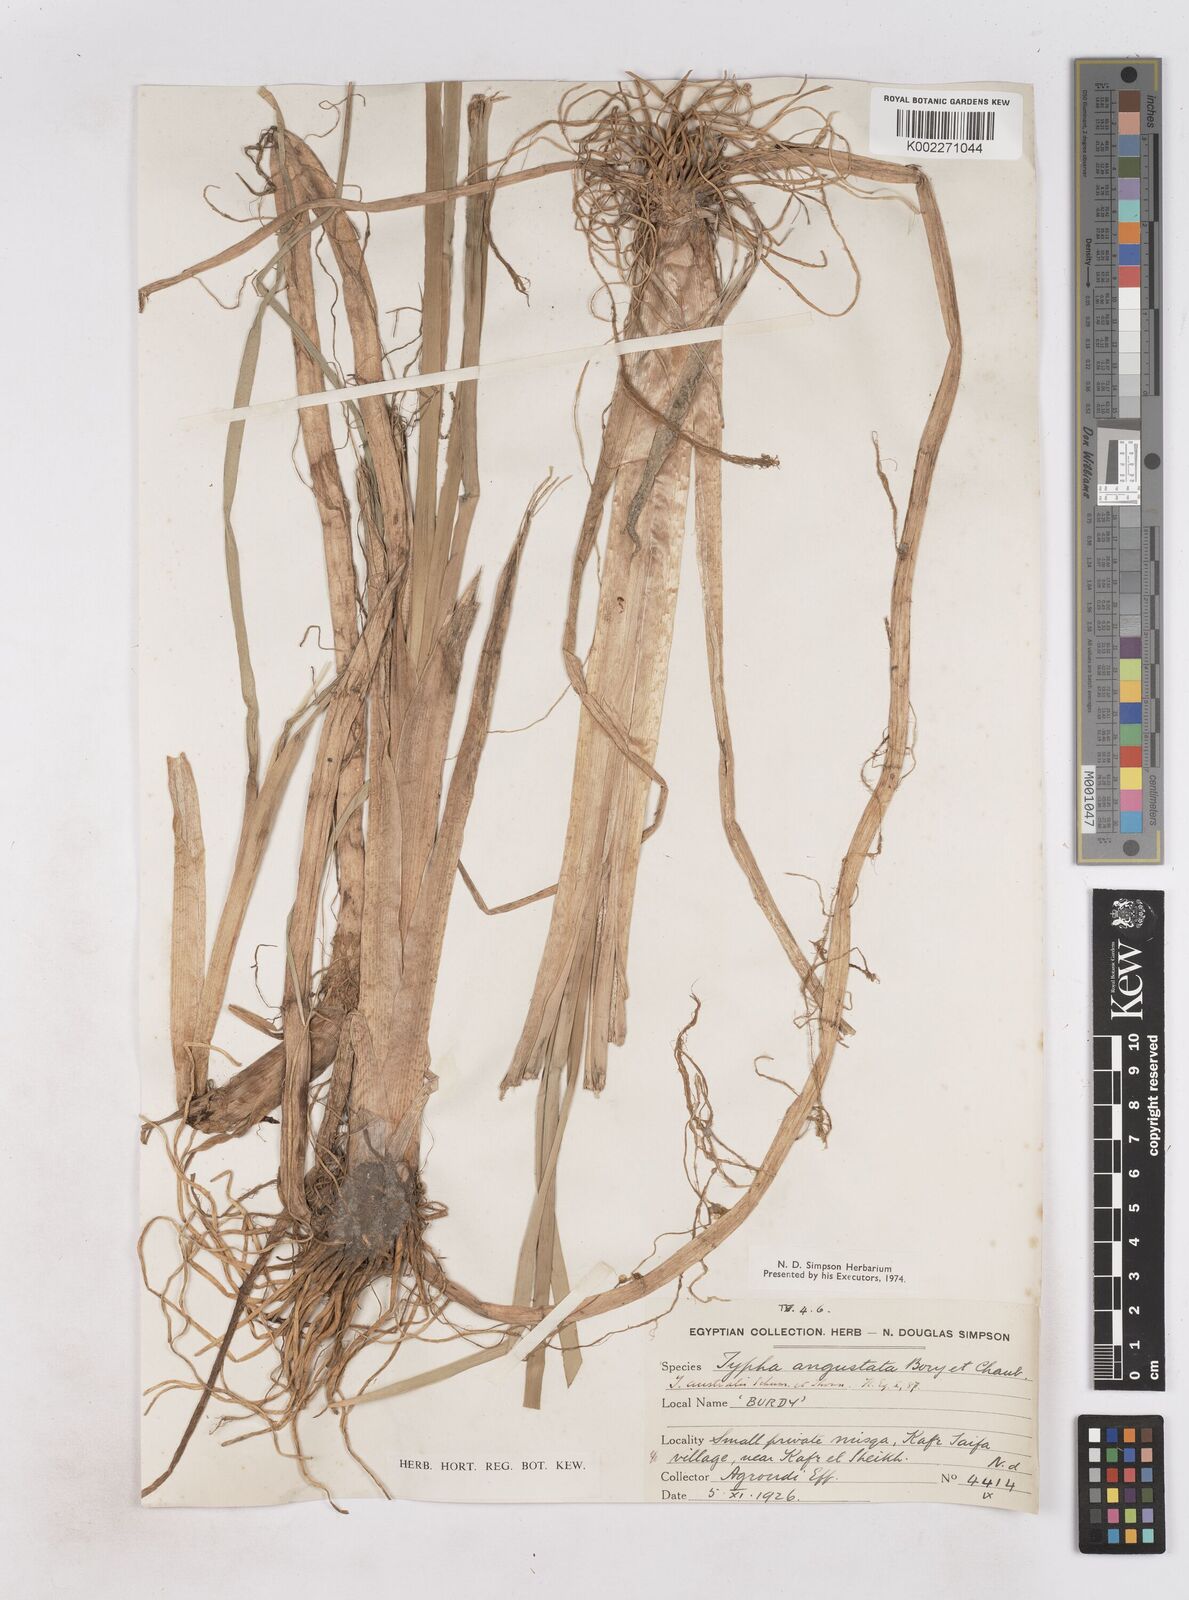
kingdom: Plantae
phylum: Tracheophyta
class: Liliopsida
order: Poales
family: Typhaceae
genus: Typha
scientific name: Typha domingensis
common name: Southern cattail
